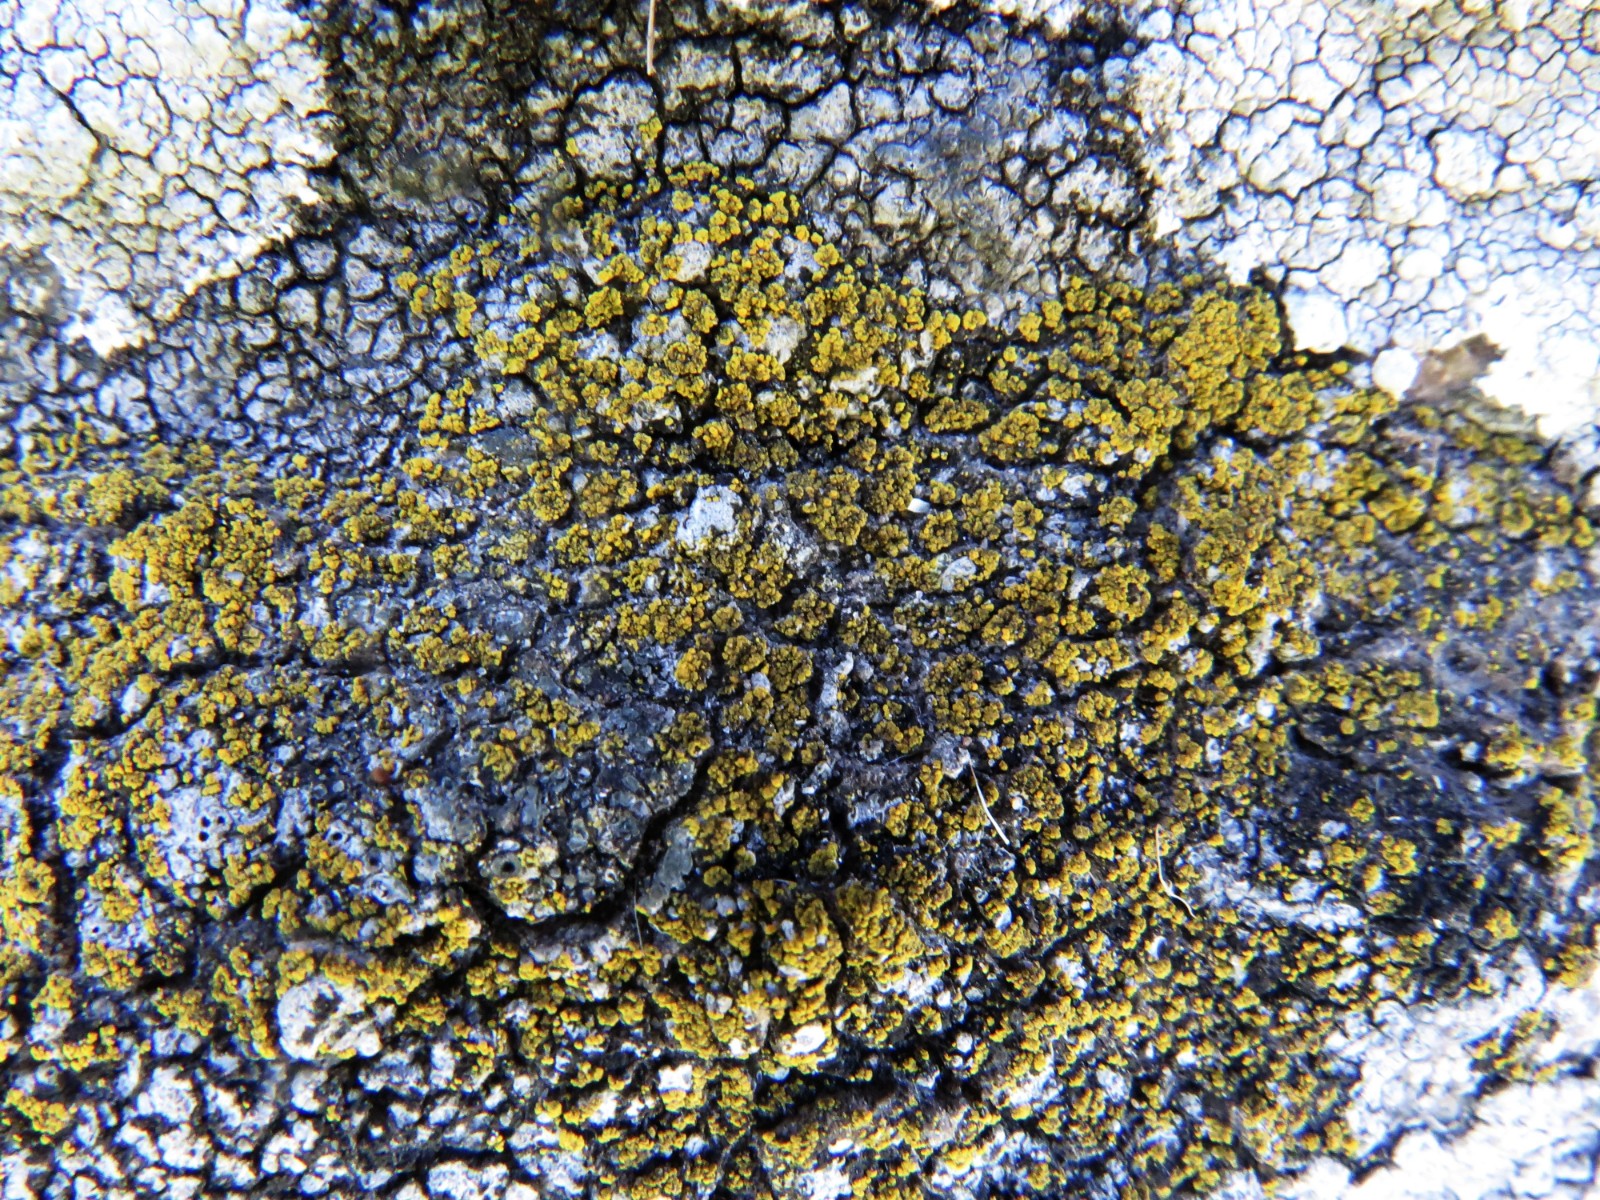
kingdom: Fungi
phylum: Ascomycota
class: Candelariomycetes
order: Candelariales
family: Candelariaceae
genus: Candelariella
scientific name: Candelariella vitellina
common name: almindelig æggeblommelav
